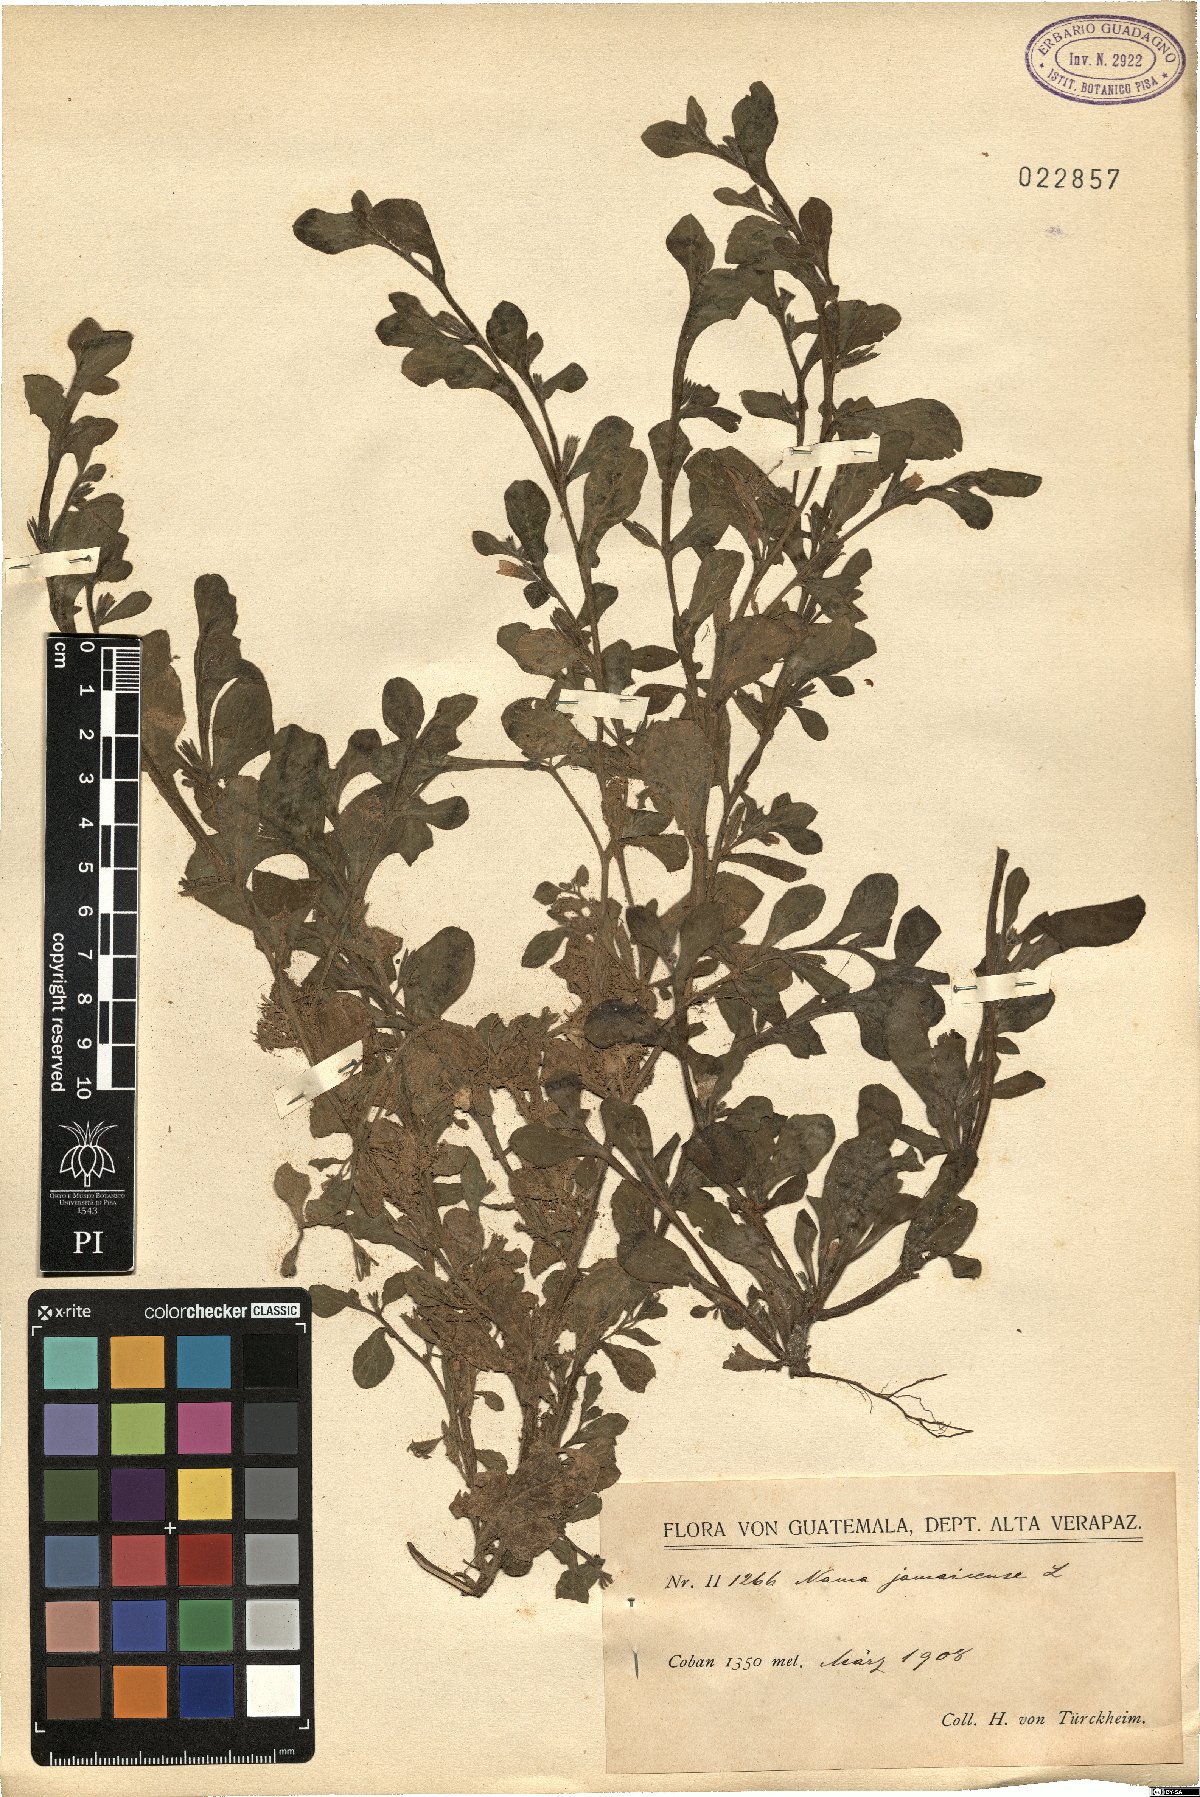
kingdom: Plantae
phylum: Tracheophyta
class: Magnoliopsida
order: Boraginales
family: Namaceae
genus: Nama
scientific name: Nama jamaicensis
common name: Jamaicanweed
